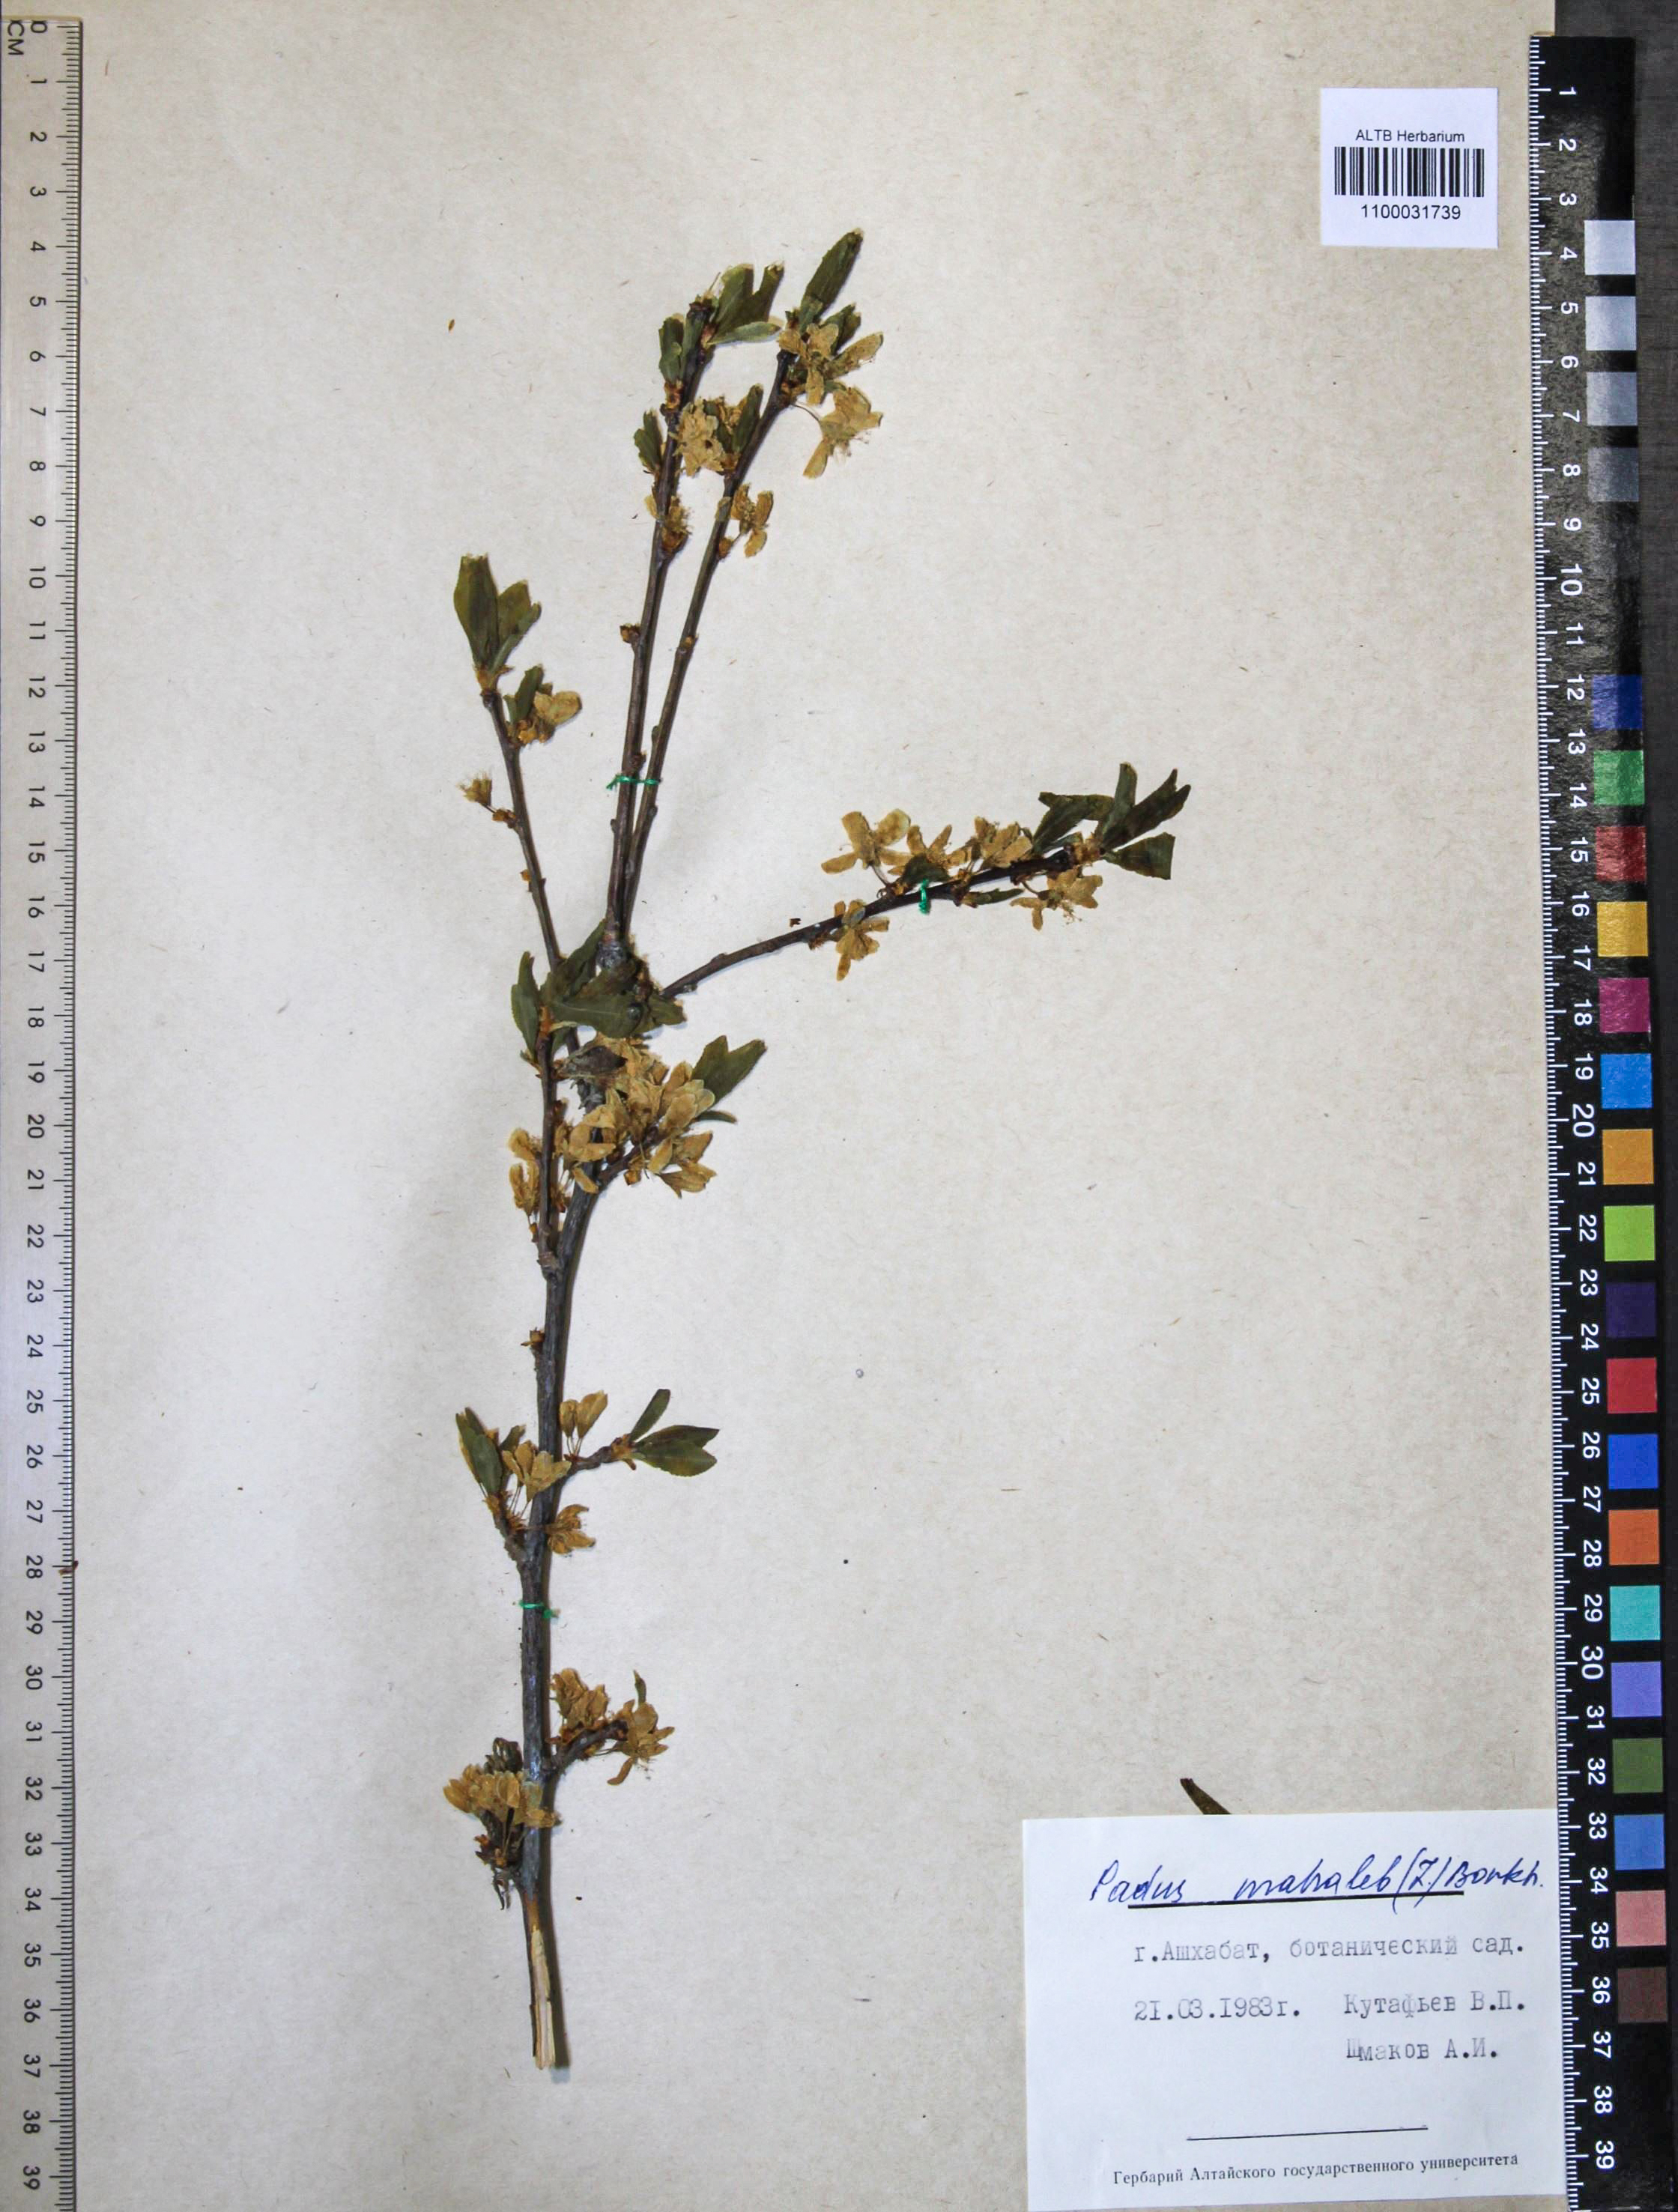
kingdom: Plantae
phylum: Tracheophyta
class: Magnoliopsida
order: Rosales
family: Rosaceae
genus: Prunus
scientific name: Prunus mahaleb
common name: Mahaleb cherry
